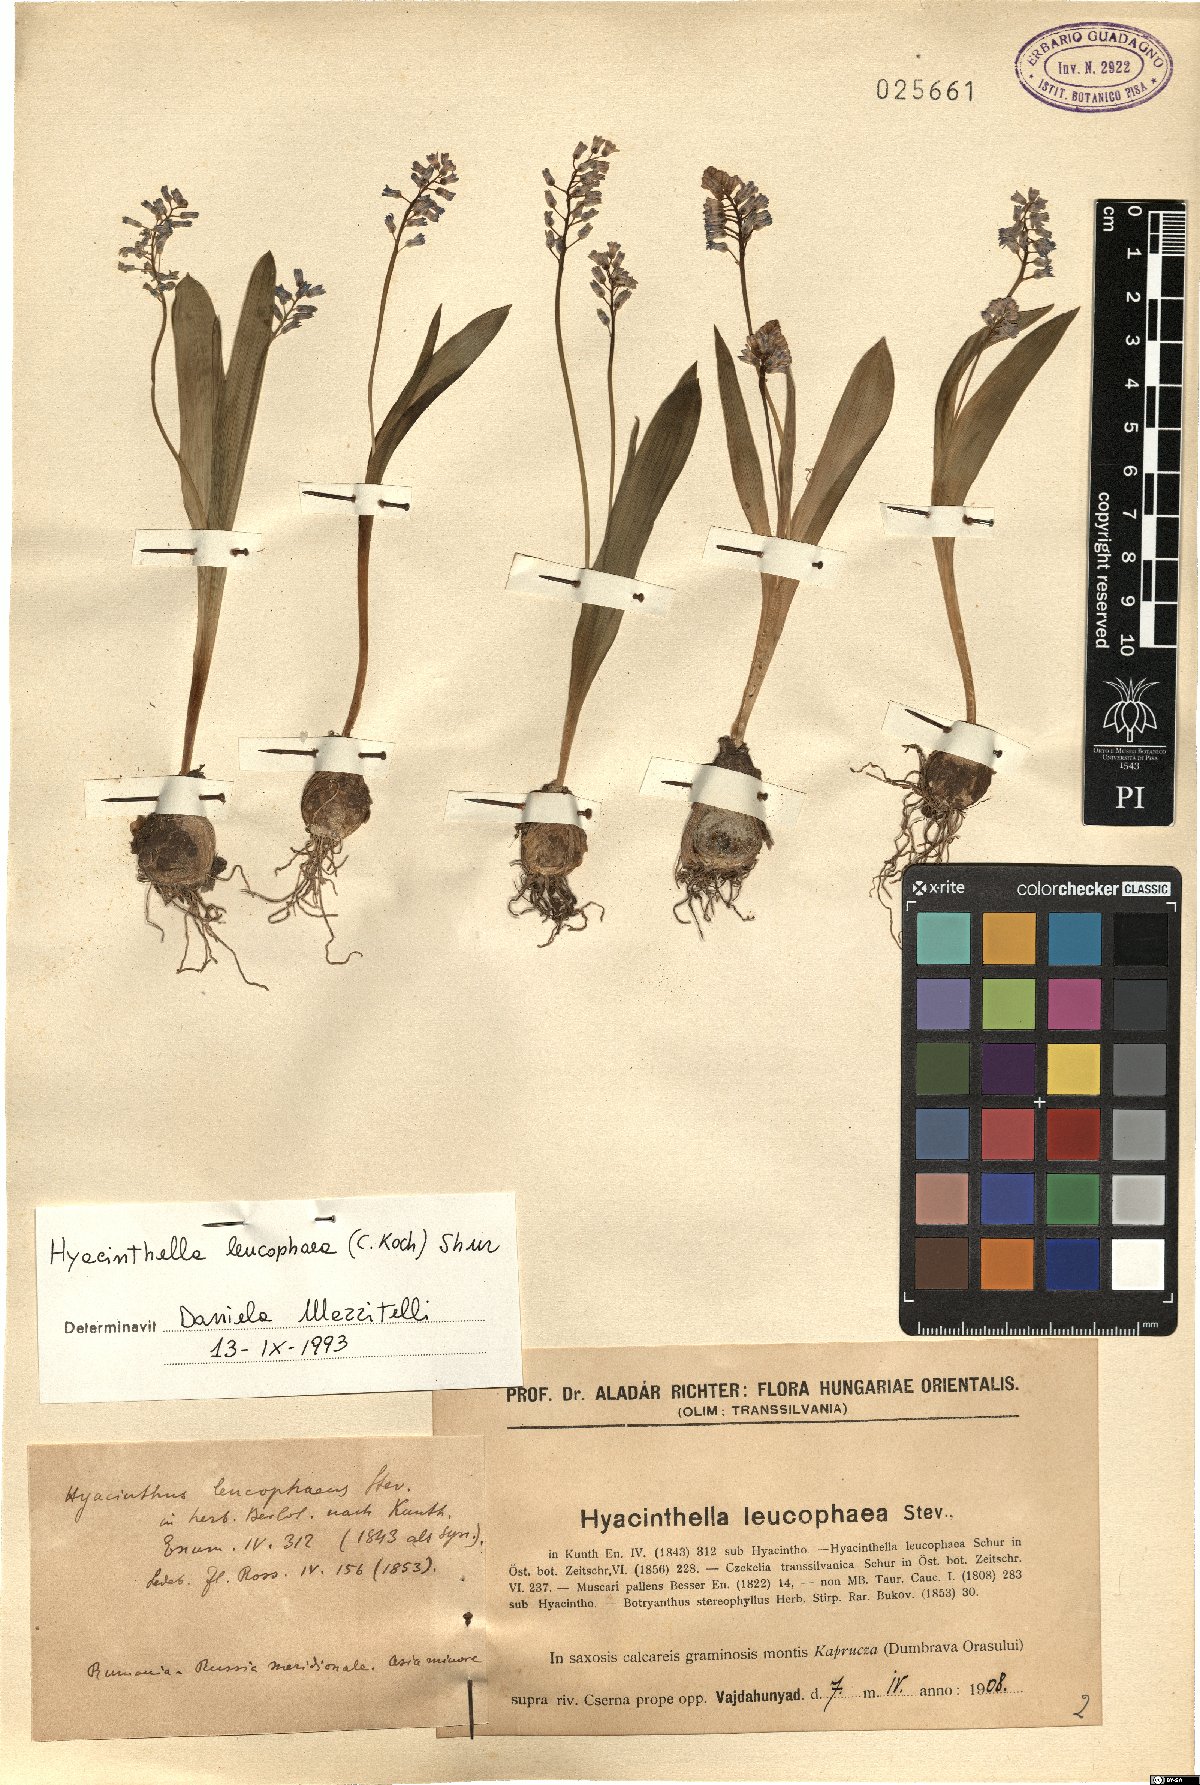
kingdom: Plantae
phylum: Tracheophyta
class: Liliopsida
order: Asparagales
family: Asparagaceae
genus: Hyacinthella
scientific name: Hyacinthella leucophaea
